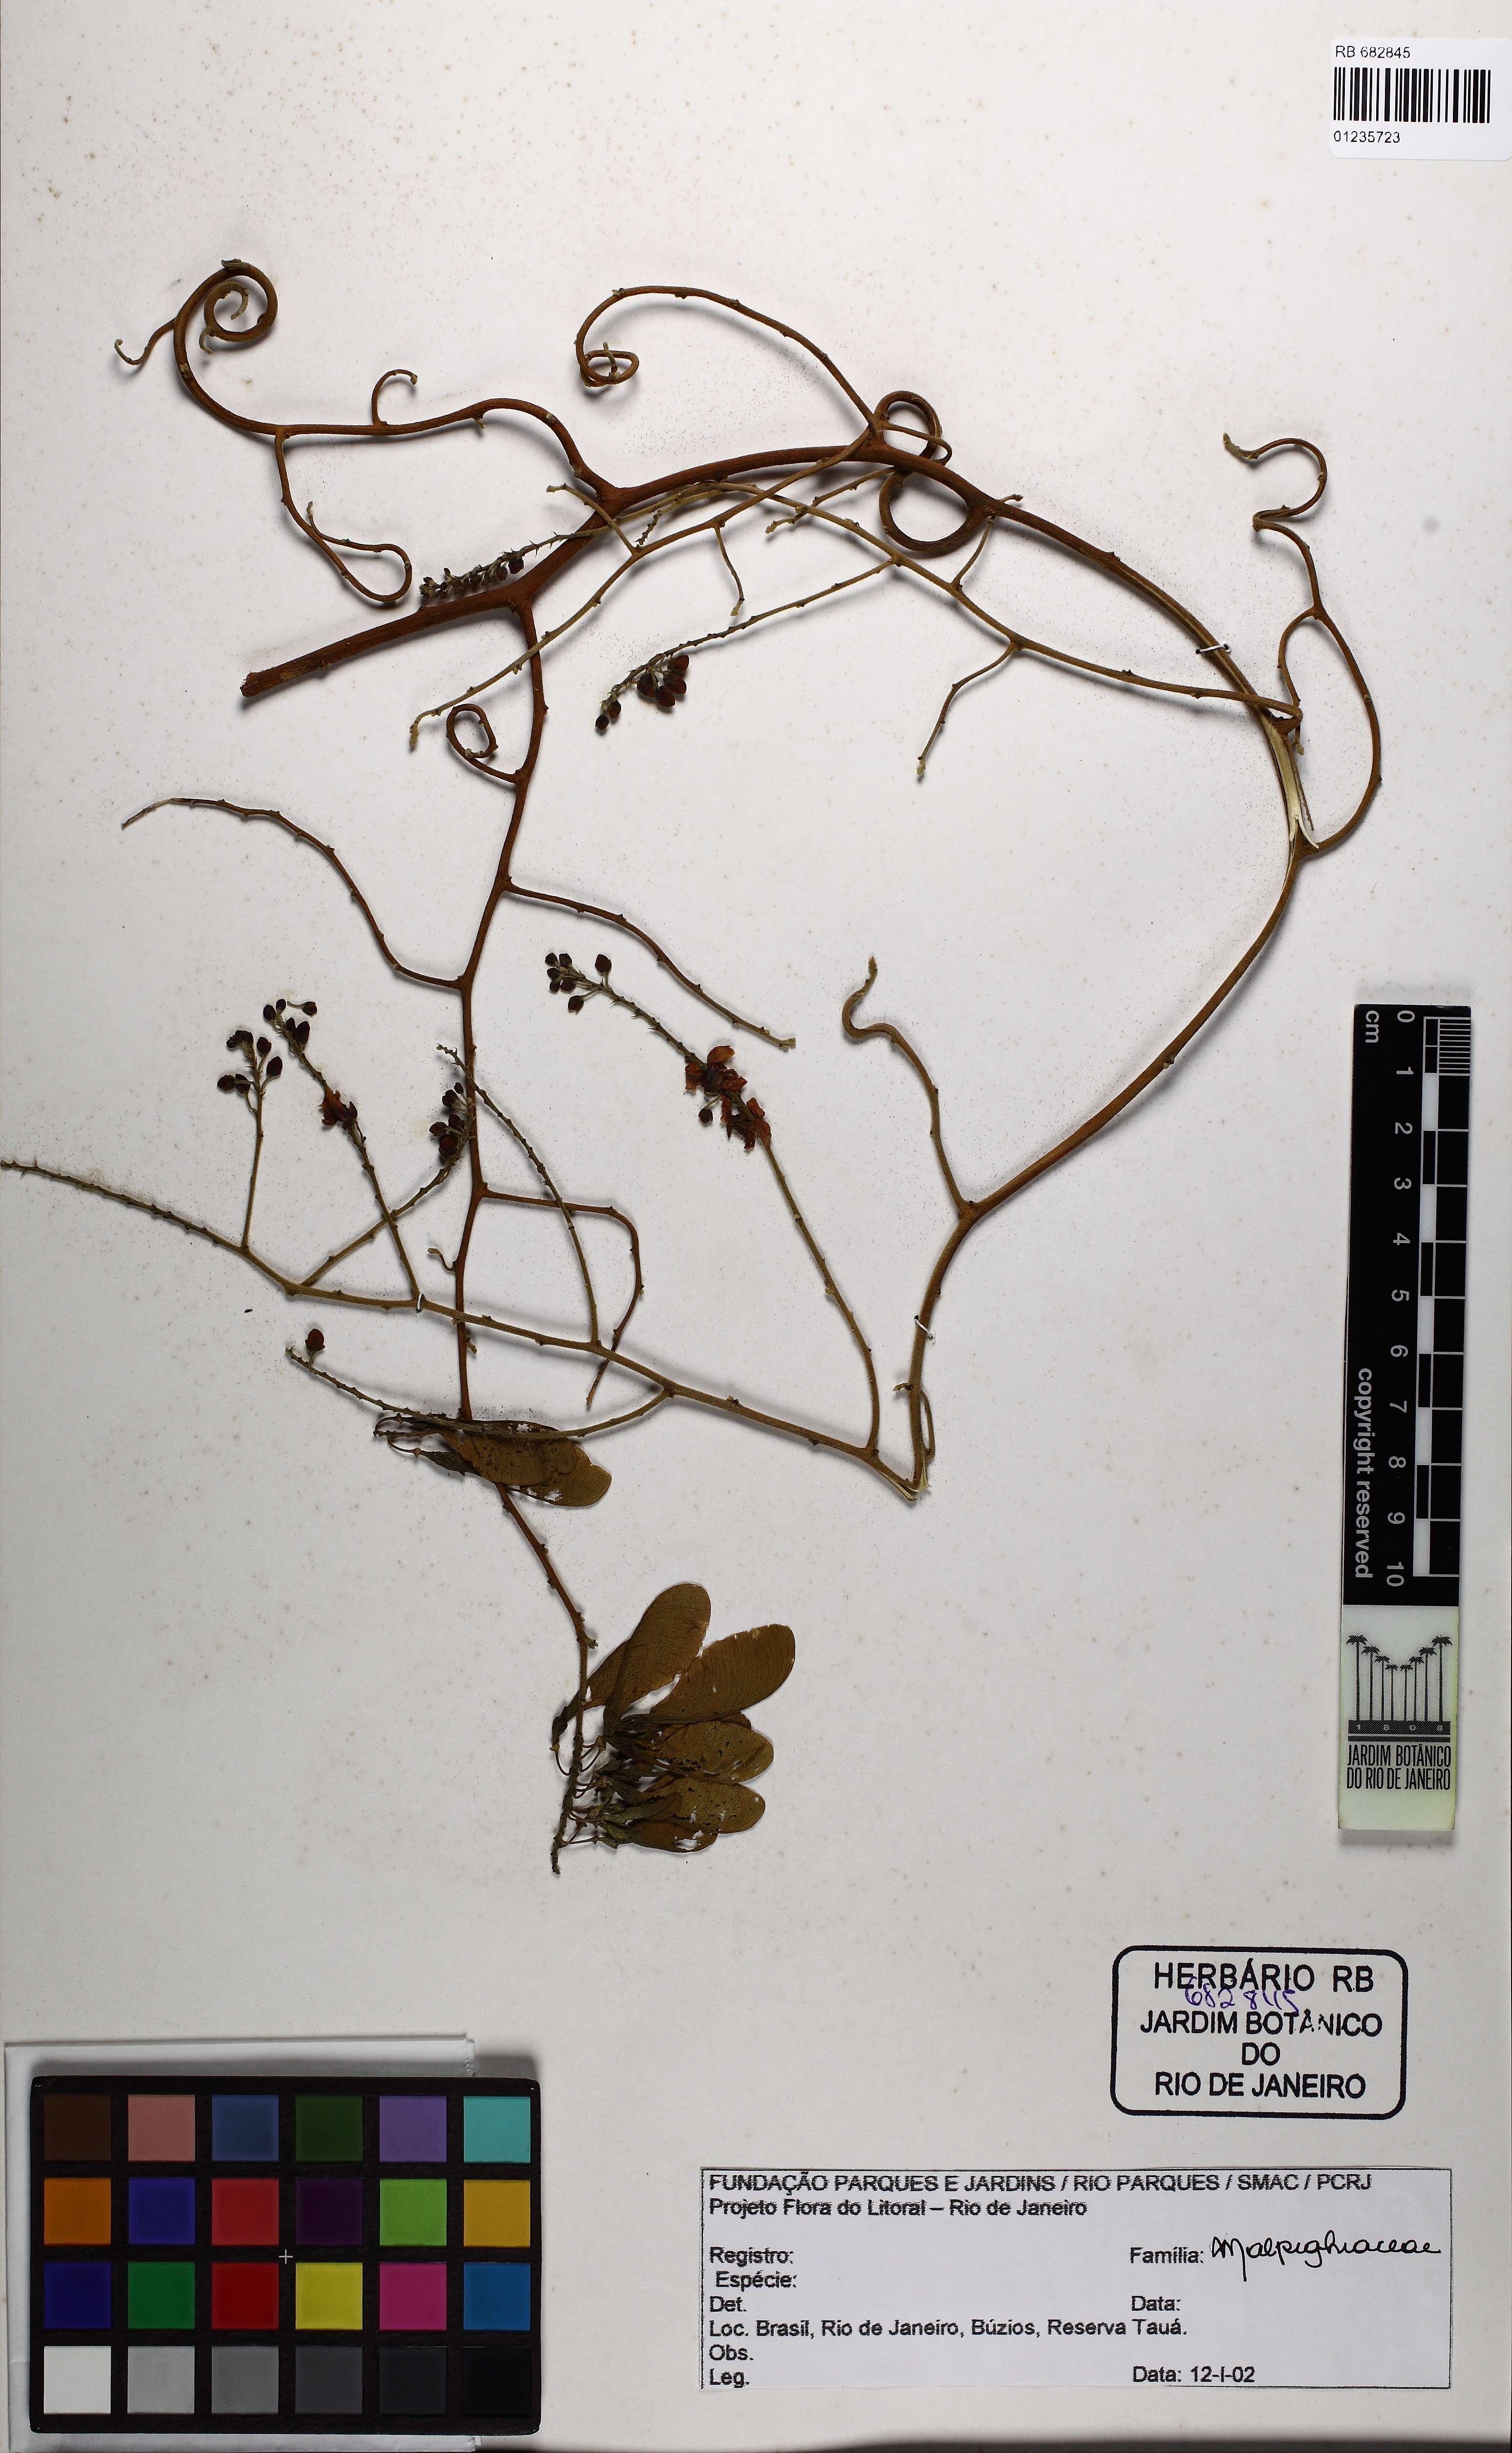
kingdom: Plantae
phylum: Tracheophyta
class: Magnoliopsida
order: Fabales
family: Polygalaceae
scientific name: Polygalaceae
